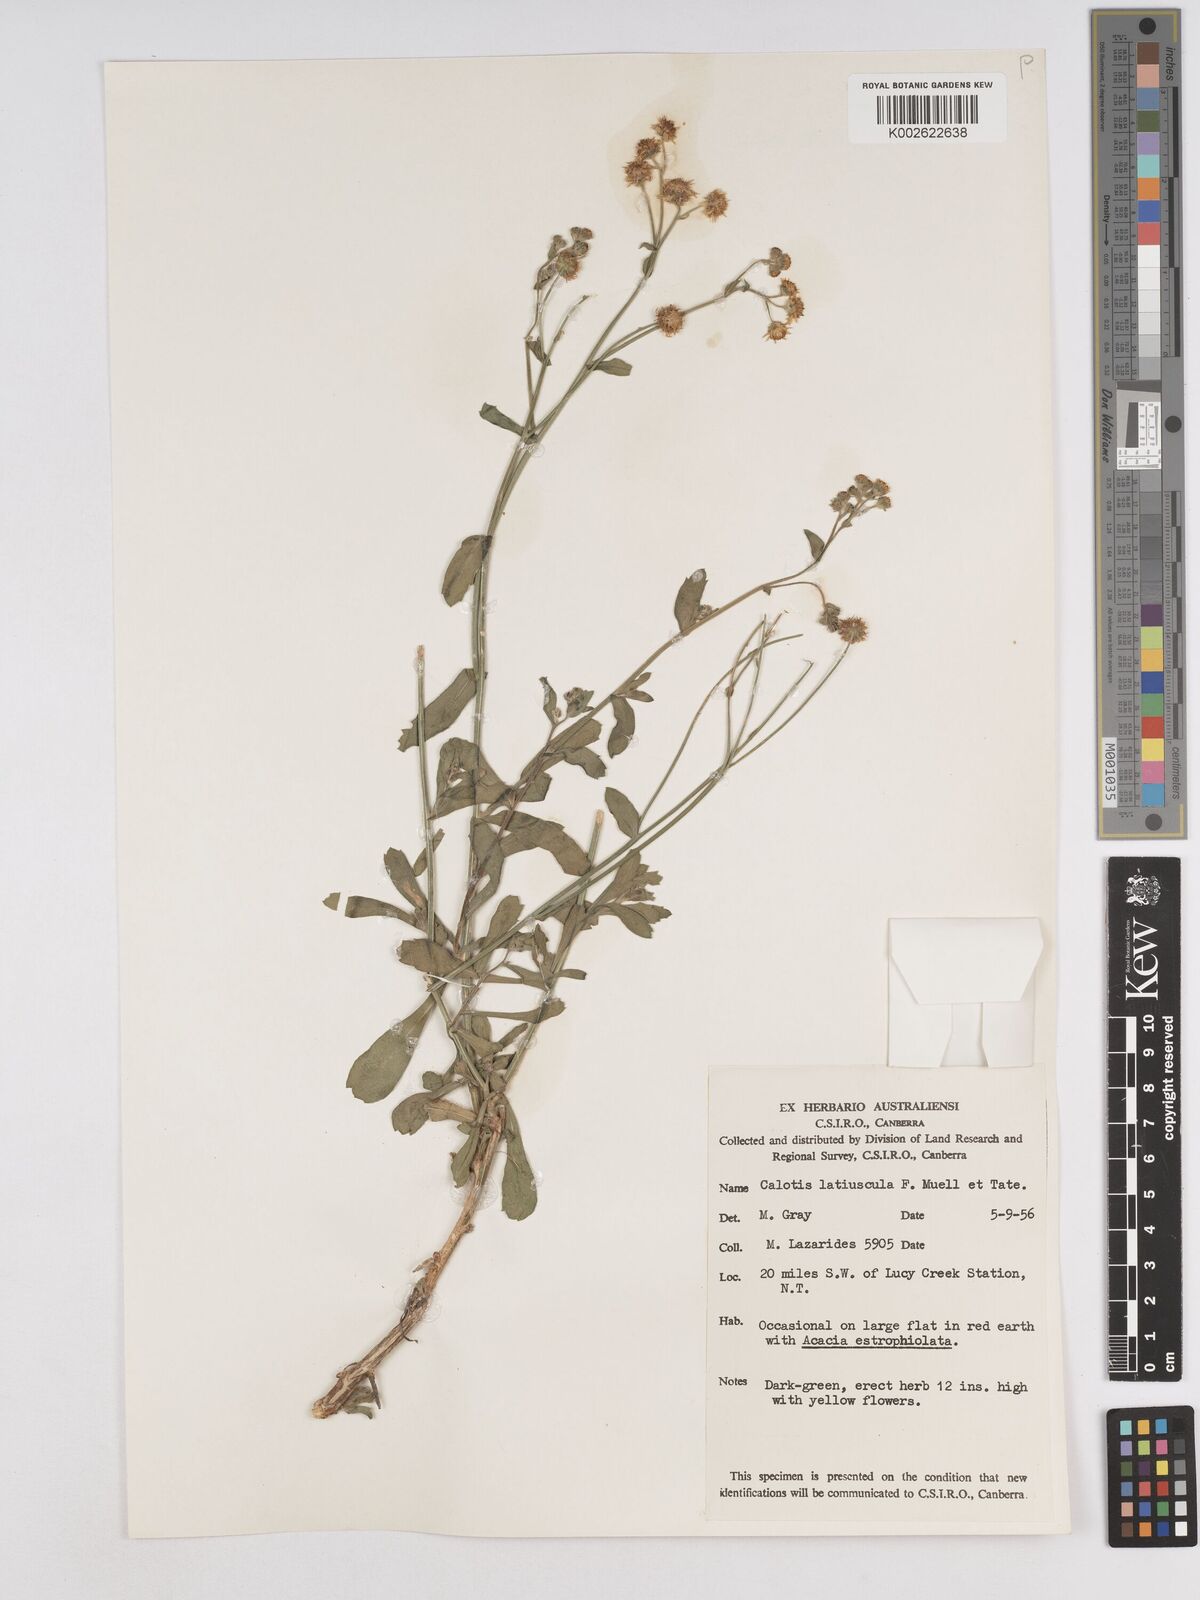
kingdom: Plantae
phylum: Tracheophyta
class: Magnoliopsida
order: Asterales
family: Asteraceae
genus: Calotis
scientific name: Calotis latiuscula
